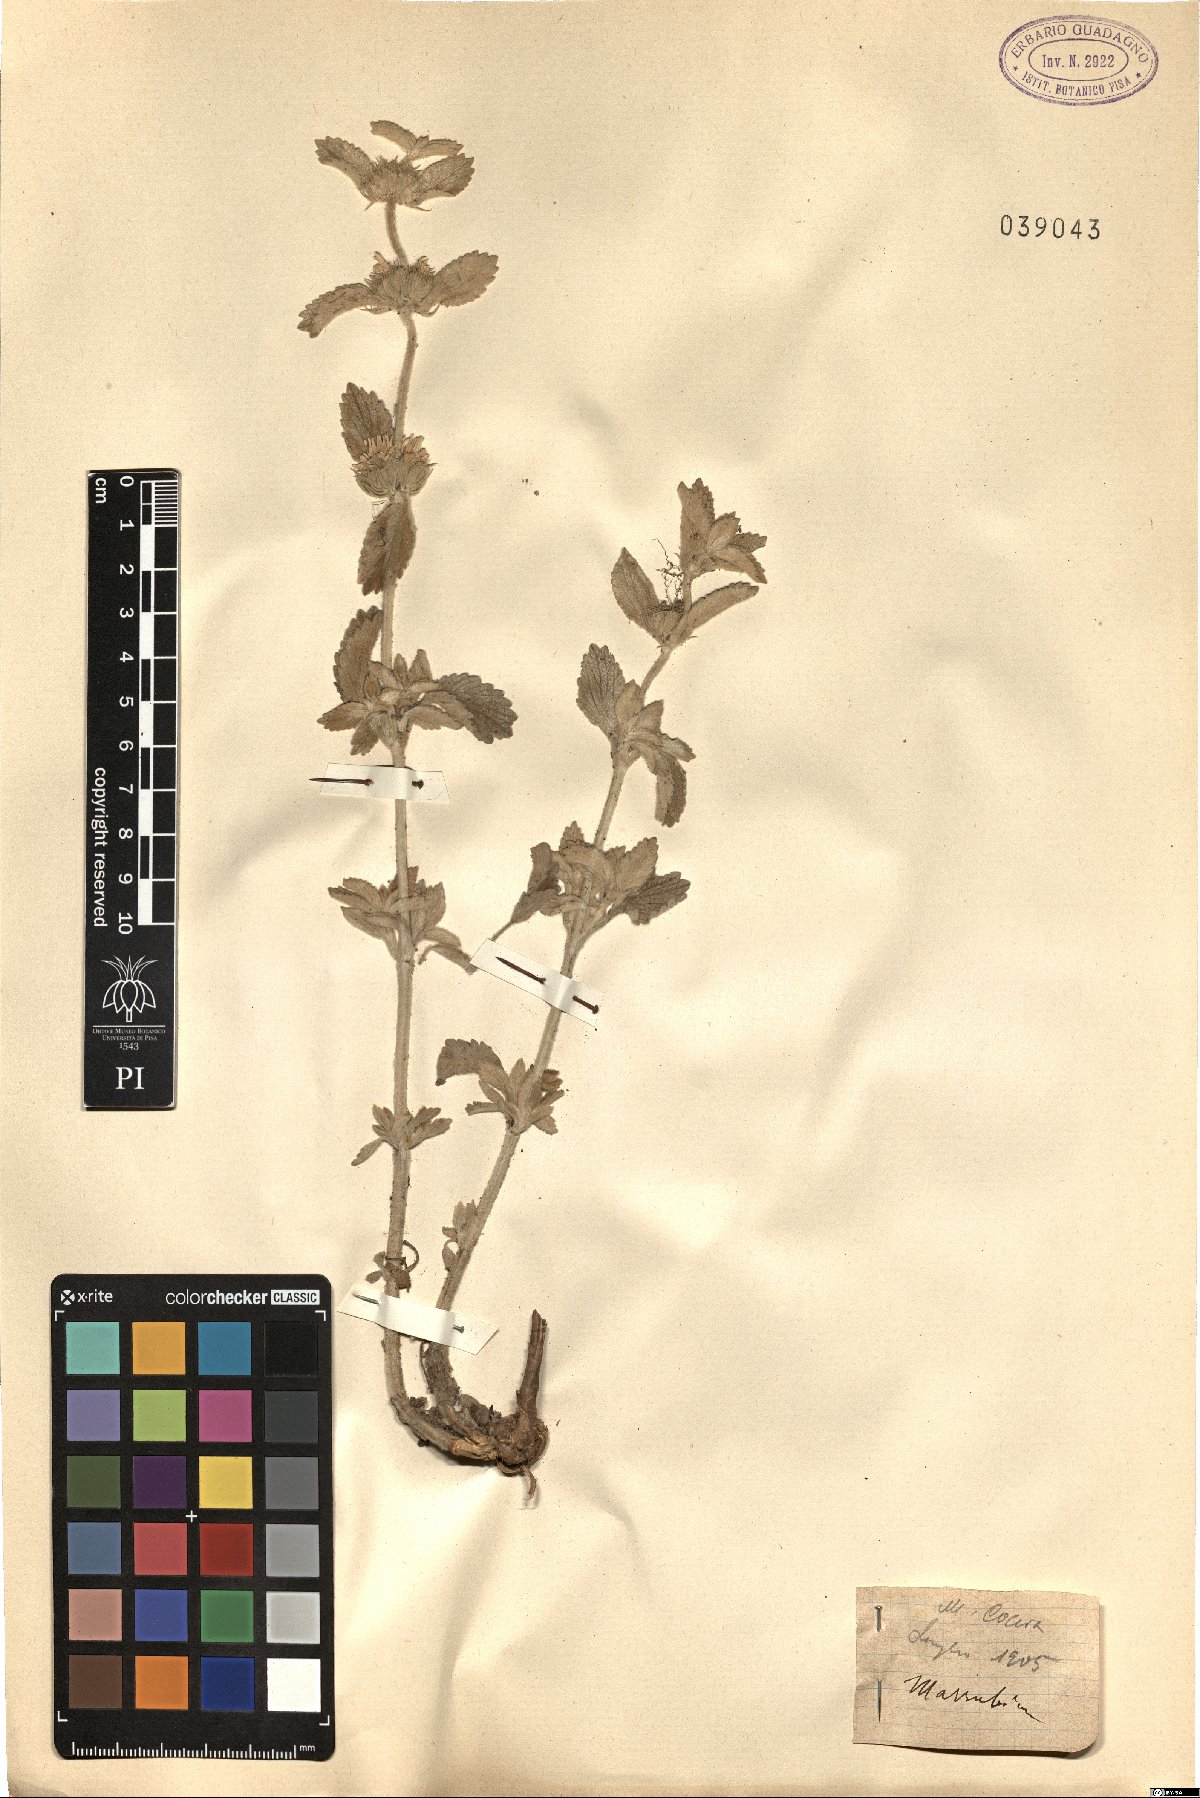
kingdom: Plantae
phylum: Tracheophyta
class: Magnoliopsida
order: Lamiales
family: Lamiaceae
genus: Marrubium
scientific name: Marrubium
